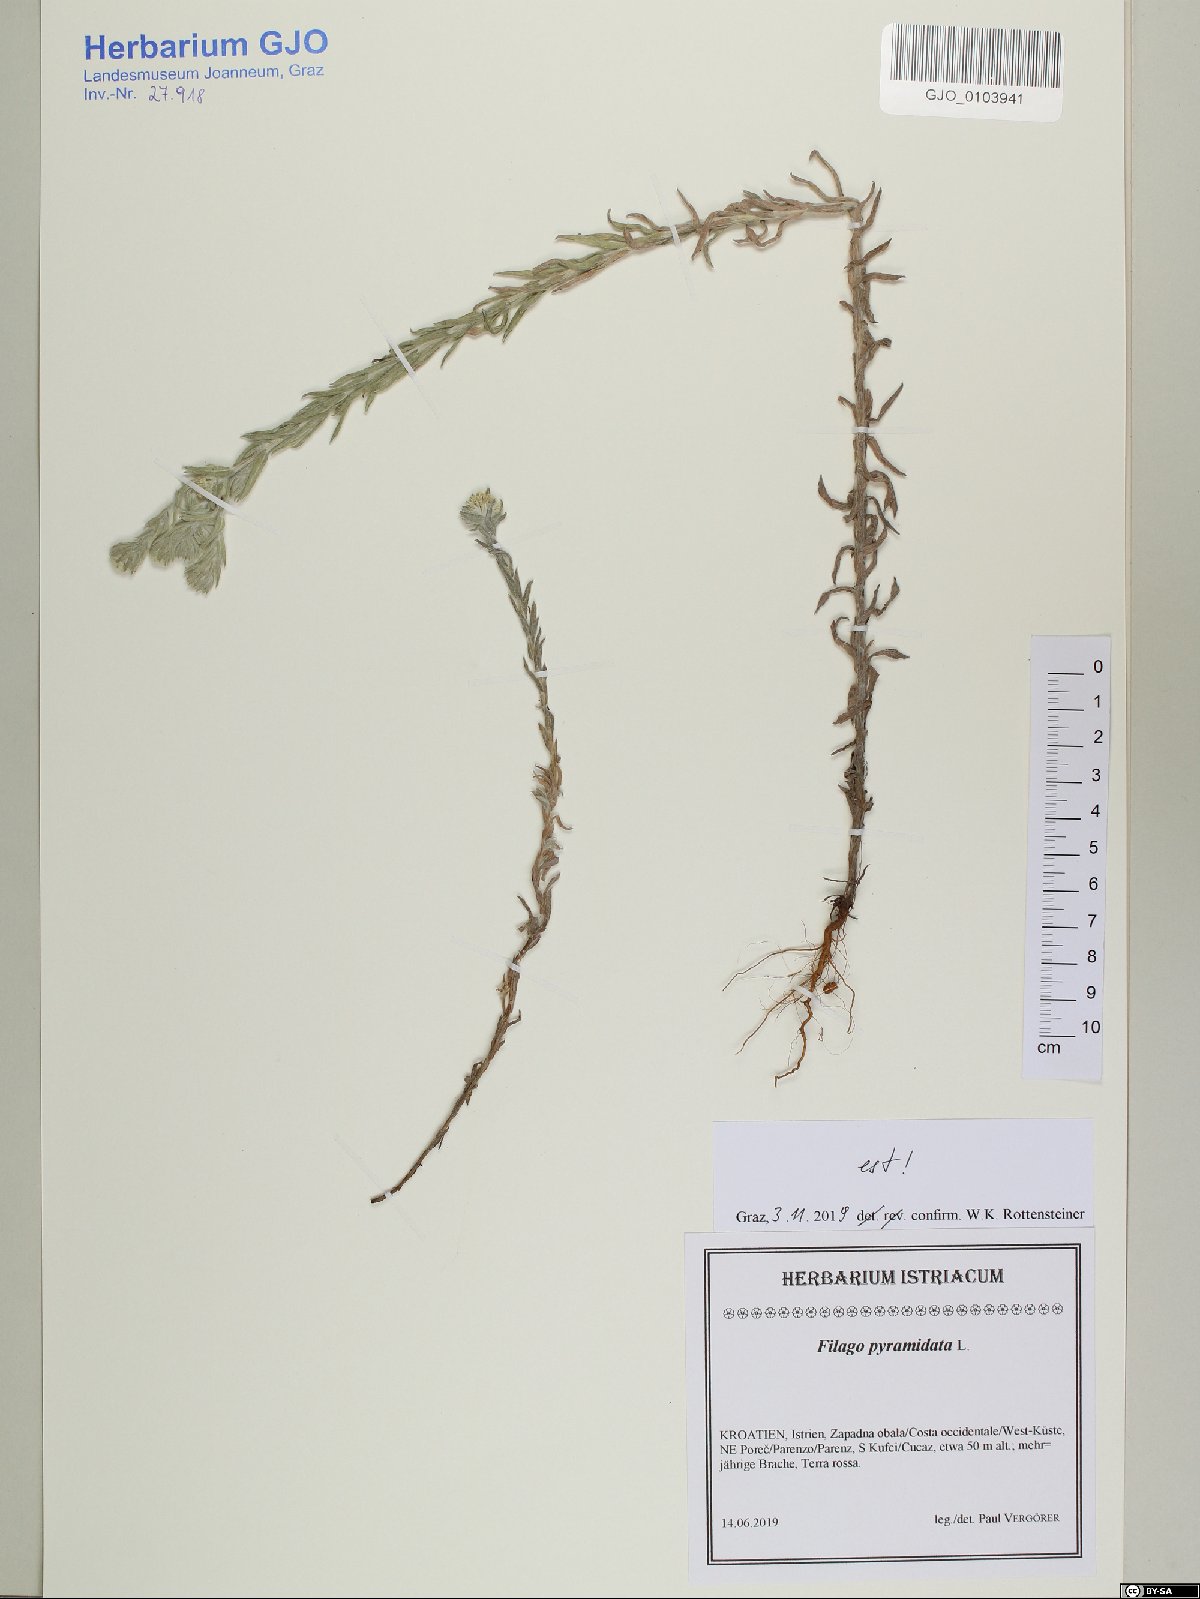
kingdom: Plantae
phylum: Tracheophyta
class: Magnoliopsida
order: Asterales
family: Asteraceae
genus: Filago
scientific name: Filago pyramidata
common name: Broad-leaved cudweed
